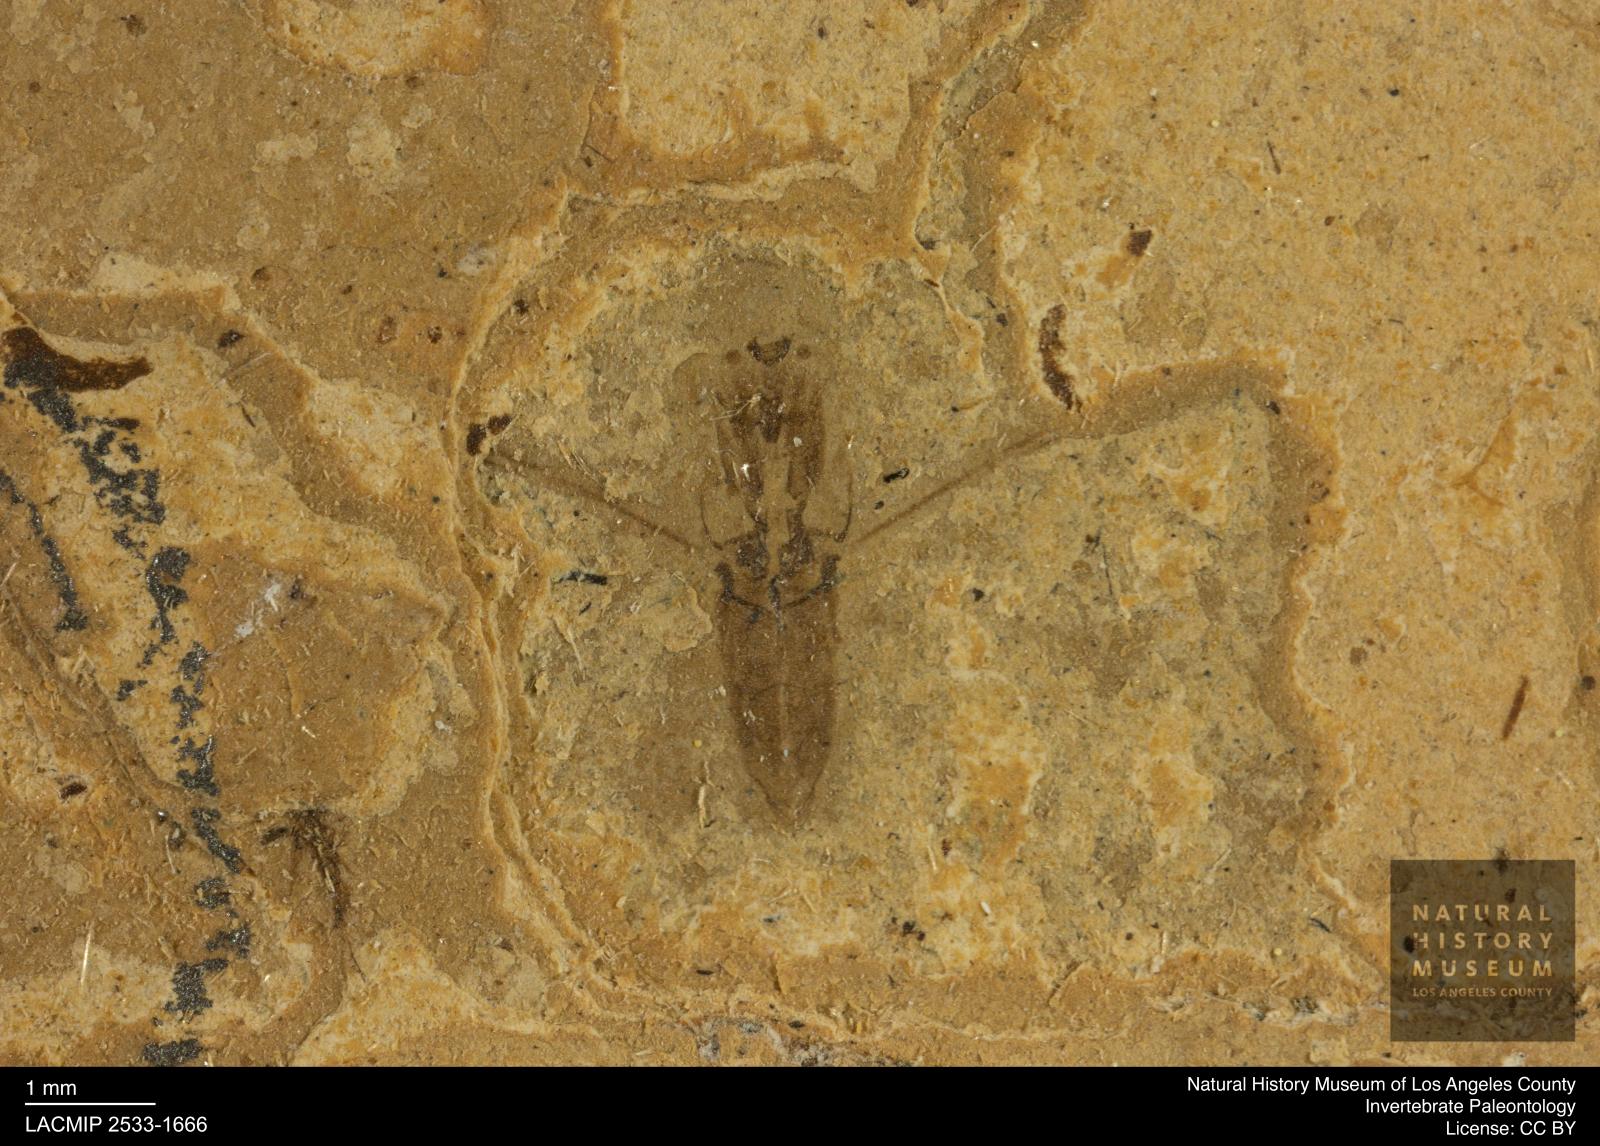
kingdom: Animalia
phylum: Arthropoda
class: Insecta
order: Hemiptera
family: Notonectidae
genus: Notonecta
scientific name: Notonecta
